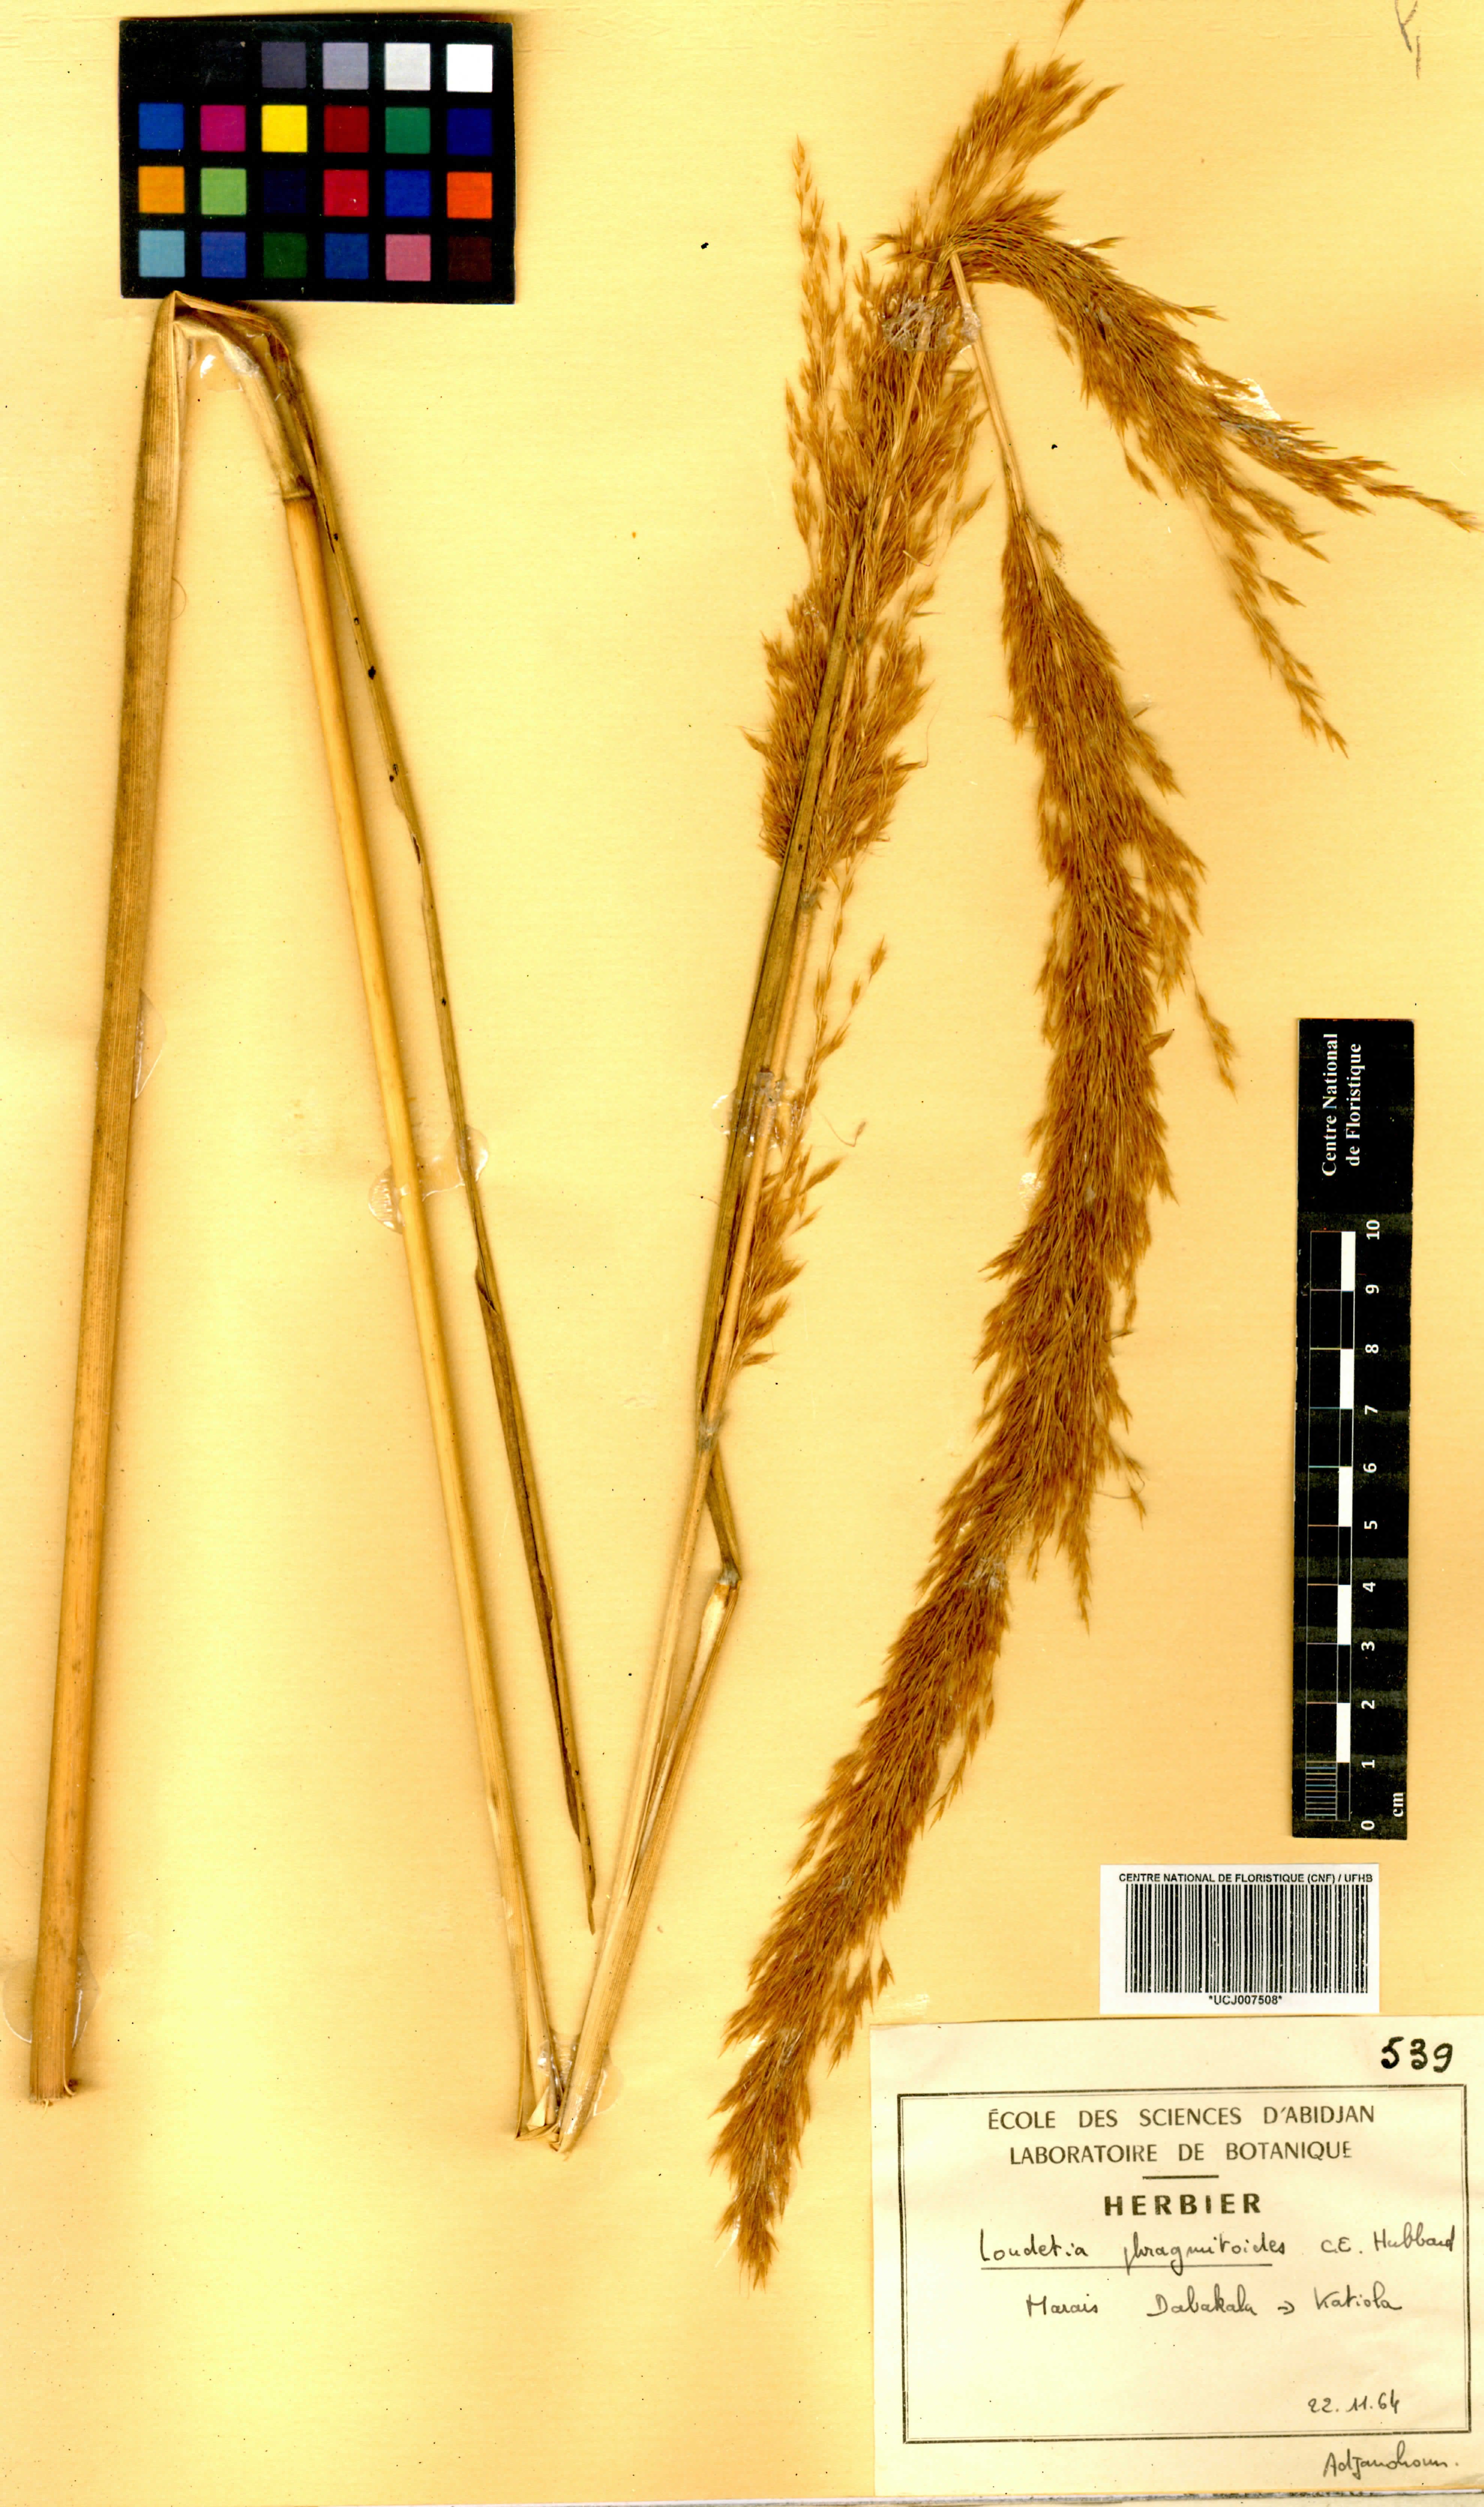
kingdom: Plantae
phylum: Tracheophyta
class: Liliopsida
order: Poales
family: Poaceae
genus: Loudetia
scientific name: Loudetia phragmitoides
